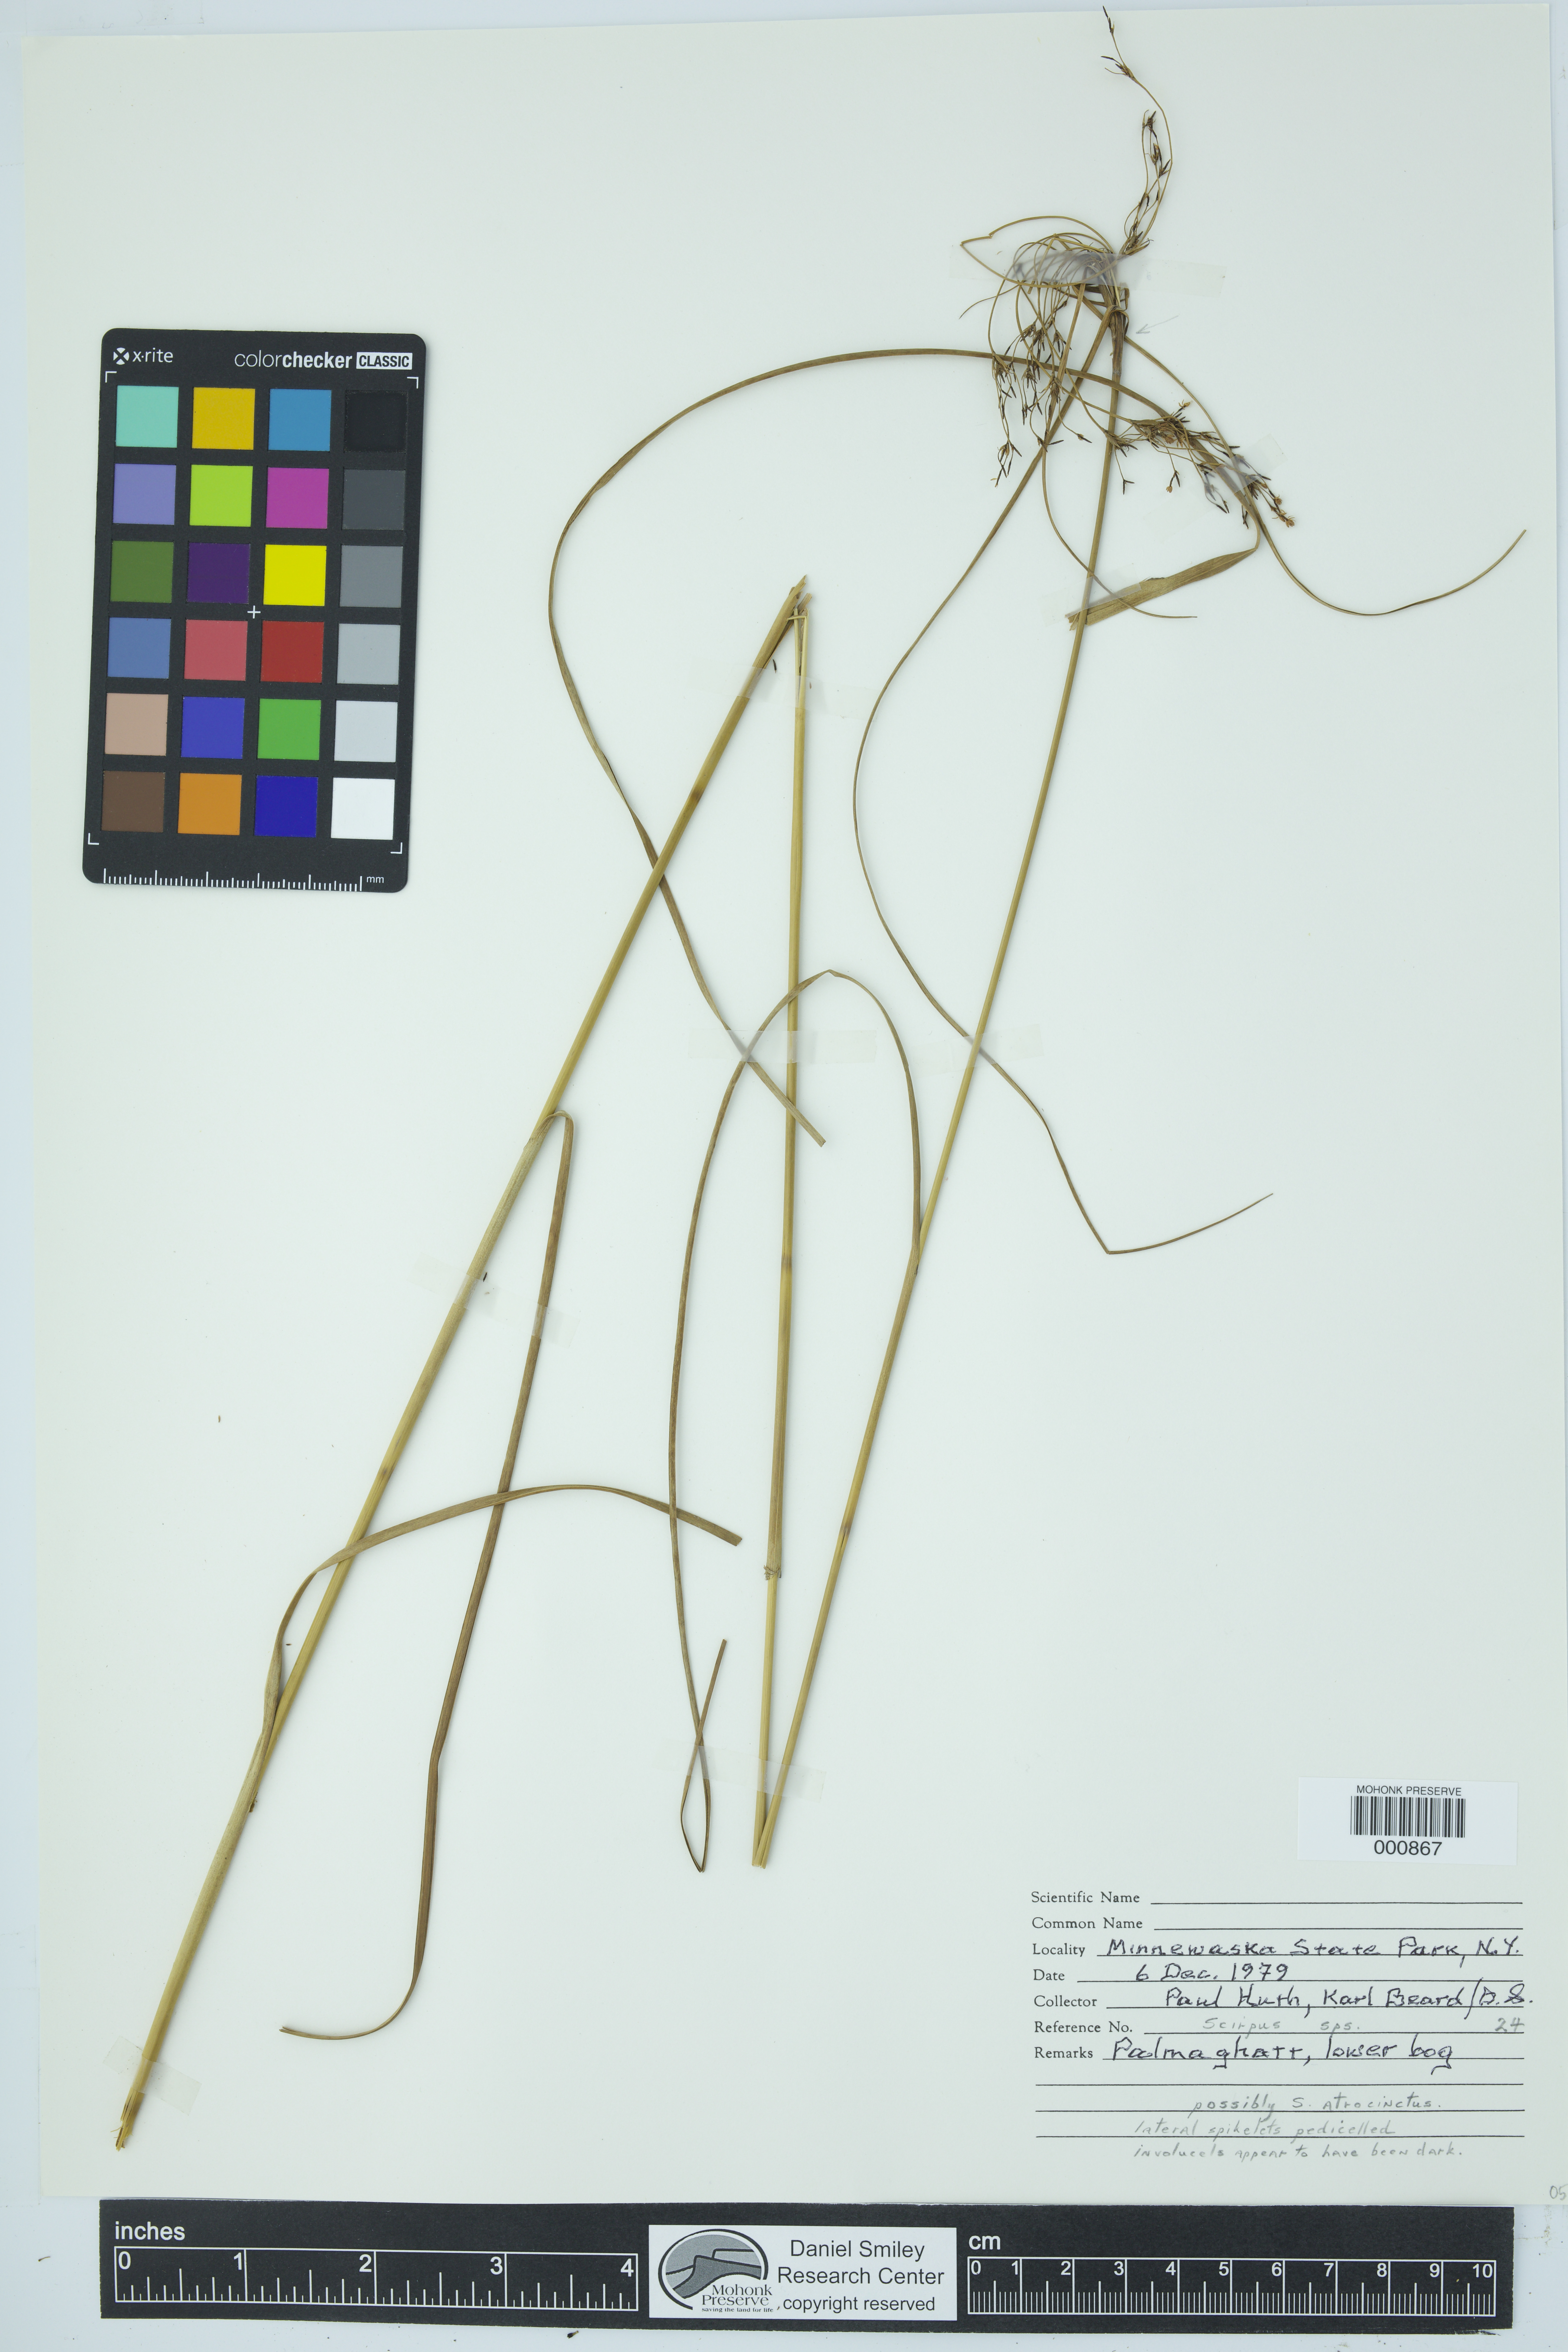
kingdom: Plantae
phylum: Tracheophyta
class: Liliopsida
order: Poales
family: Cyperaceae
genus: Scirpus
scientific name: Scirpus atrocinctus
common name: Black-girdled bulrush
